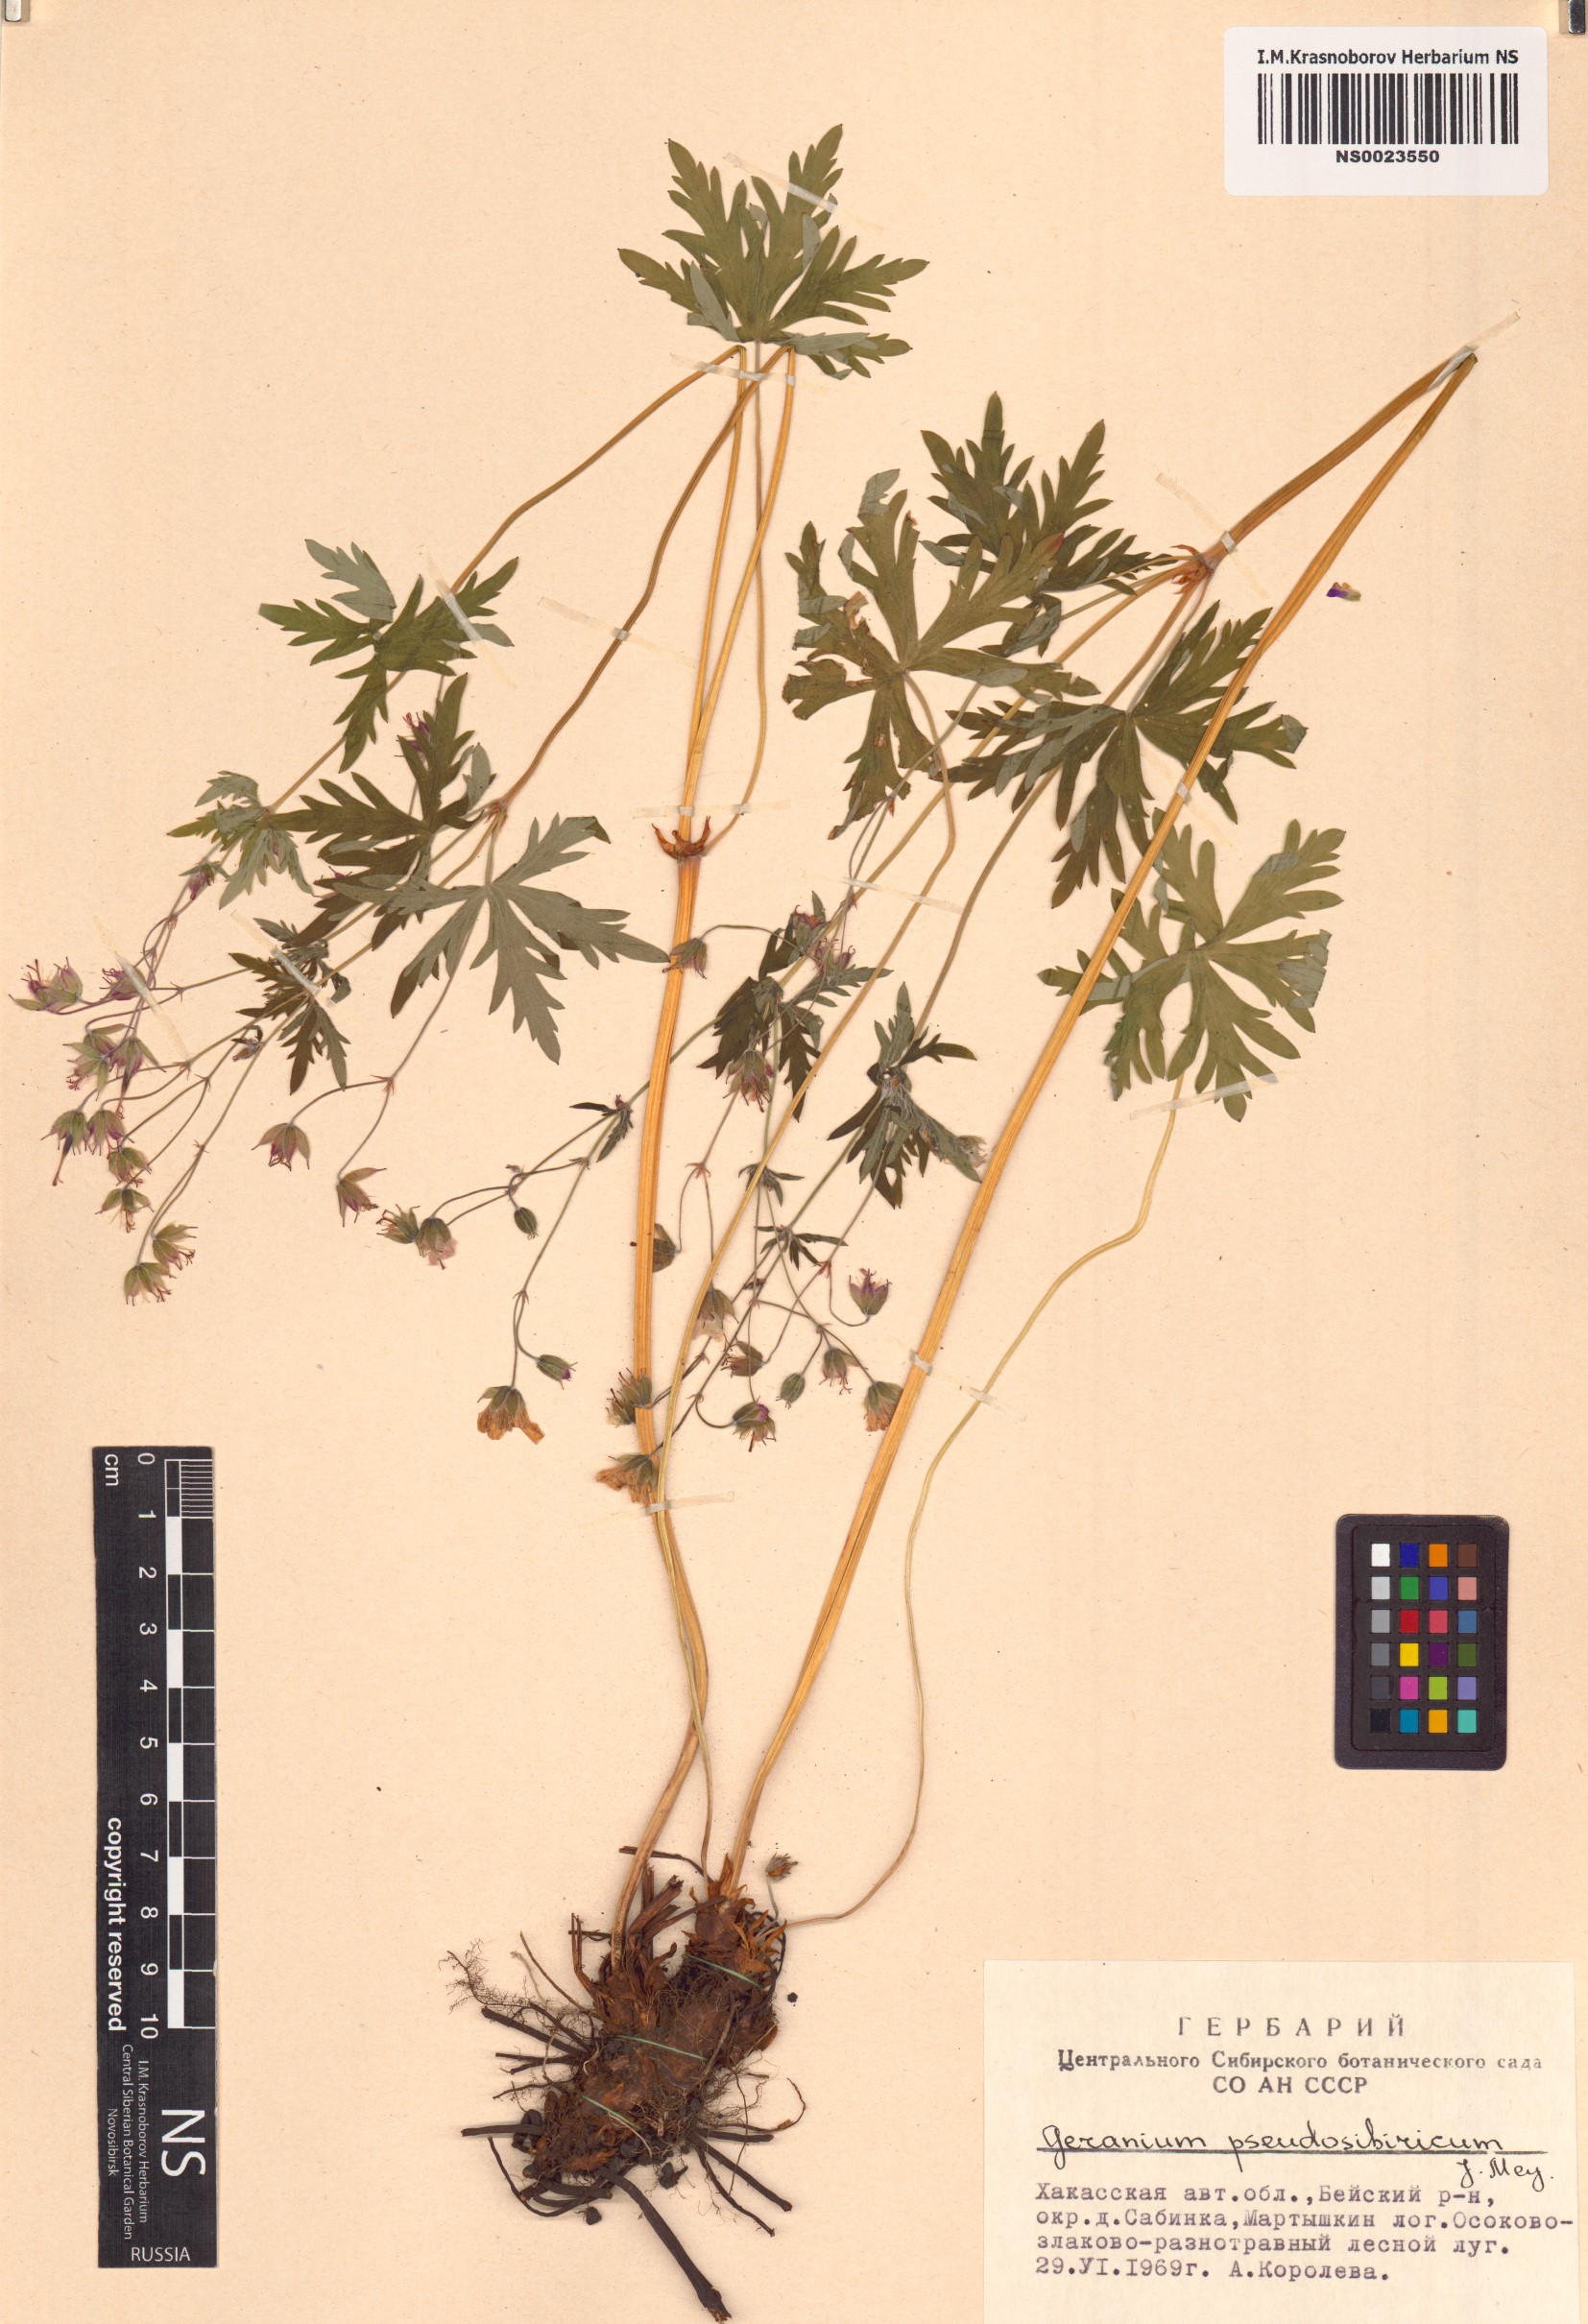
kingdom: Plantae
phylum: Tracheophyta
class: Magnoliopsida
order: Geraniales
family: Geraniaceae
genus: Geranium
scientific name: Geranium pseudosibiricum
